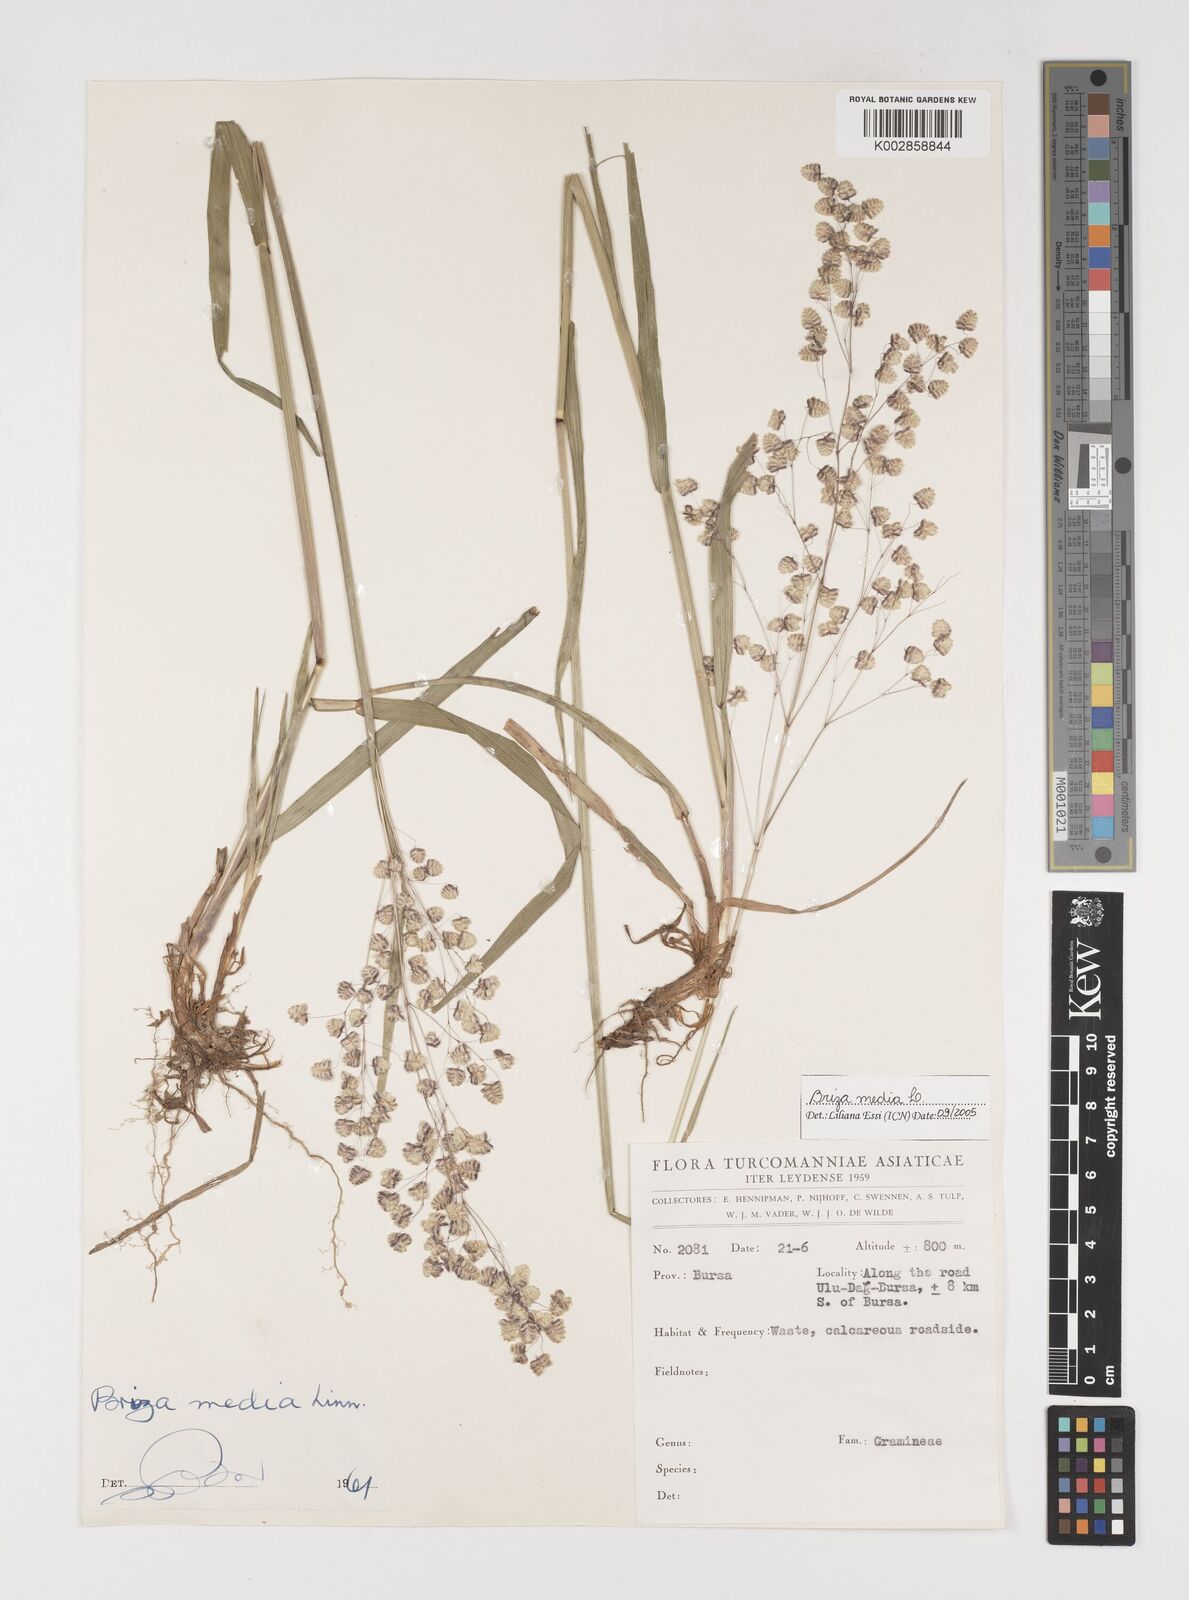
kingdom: Plantae
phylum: Tracheophyta
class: Liliopsida
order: Poales
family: Poaceae
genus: Briza
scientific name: Briza media
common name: Quaking grass
